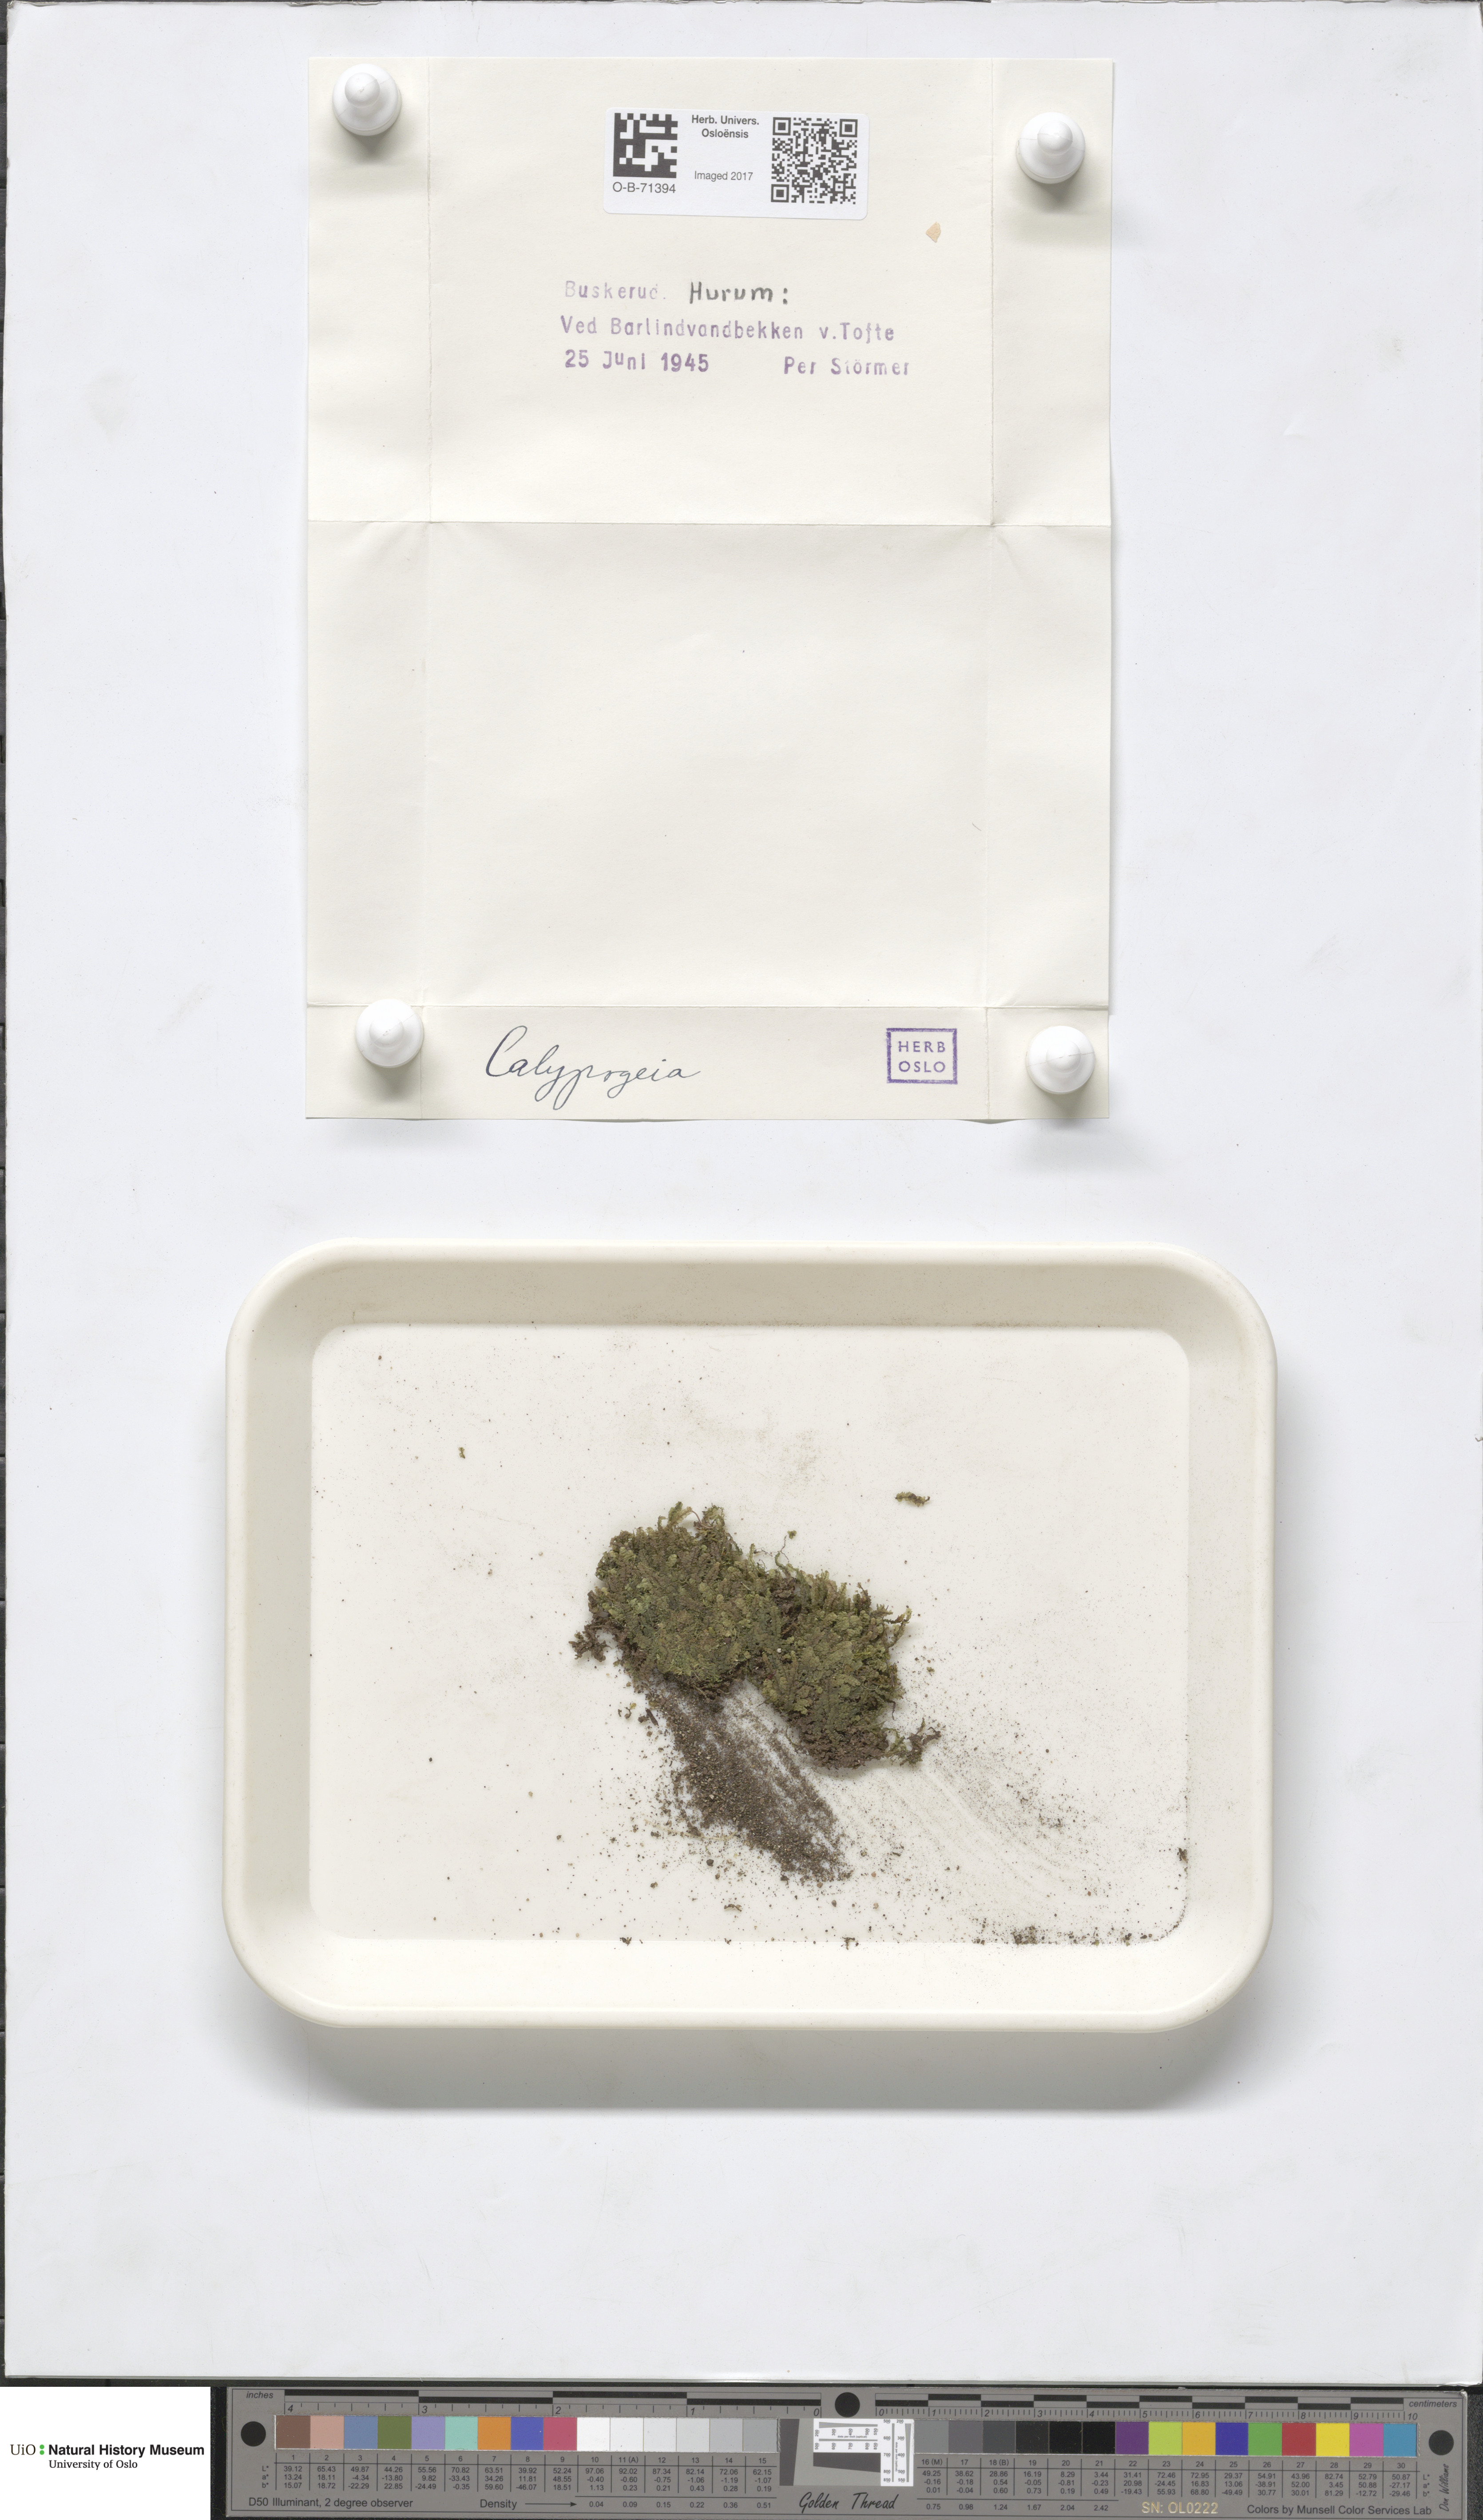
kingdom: Plantae
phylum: Marchantiophyta
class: Jungermanniopsida
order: Jungermanniales
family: Calypogeiaceae
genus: Calypogeia
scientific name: Calypogeia
